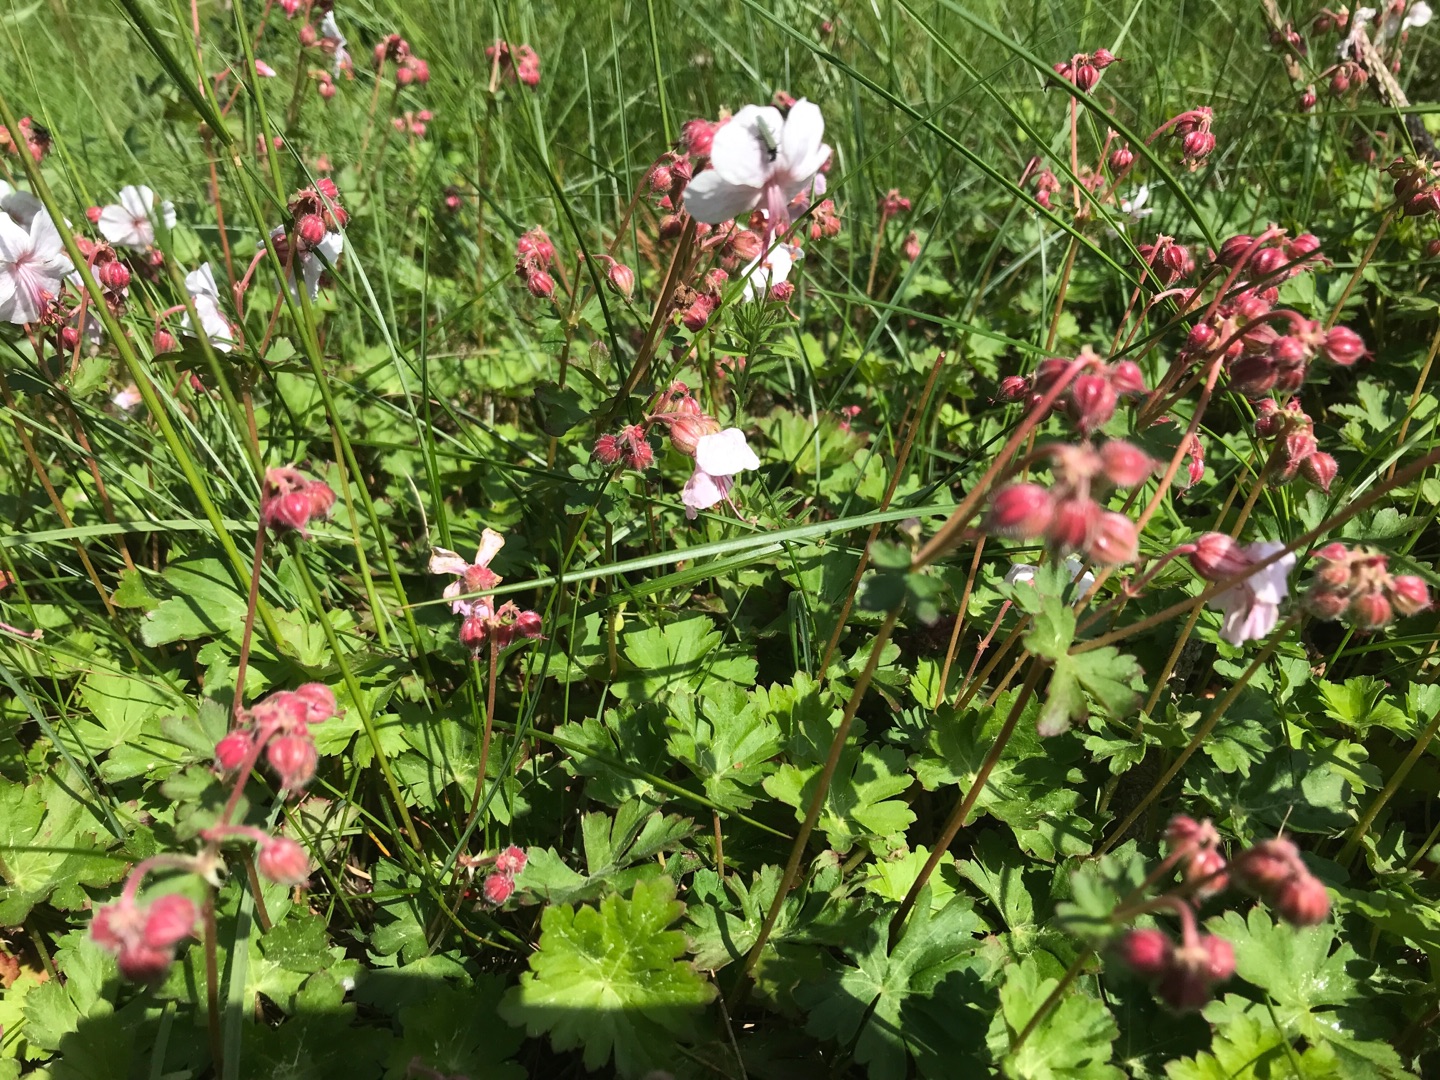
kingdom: Plantae
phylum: Tracheophyta
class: Magnoliopsida
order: Geraniales
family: Geraniaceae
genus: Geranium
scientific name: Geranium macrorrhizum
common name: Storrodet storkenæb
